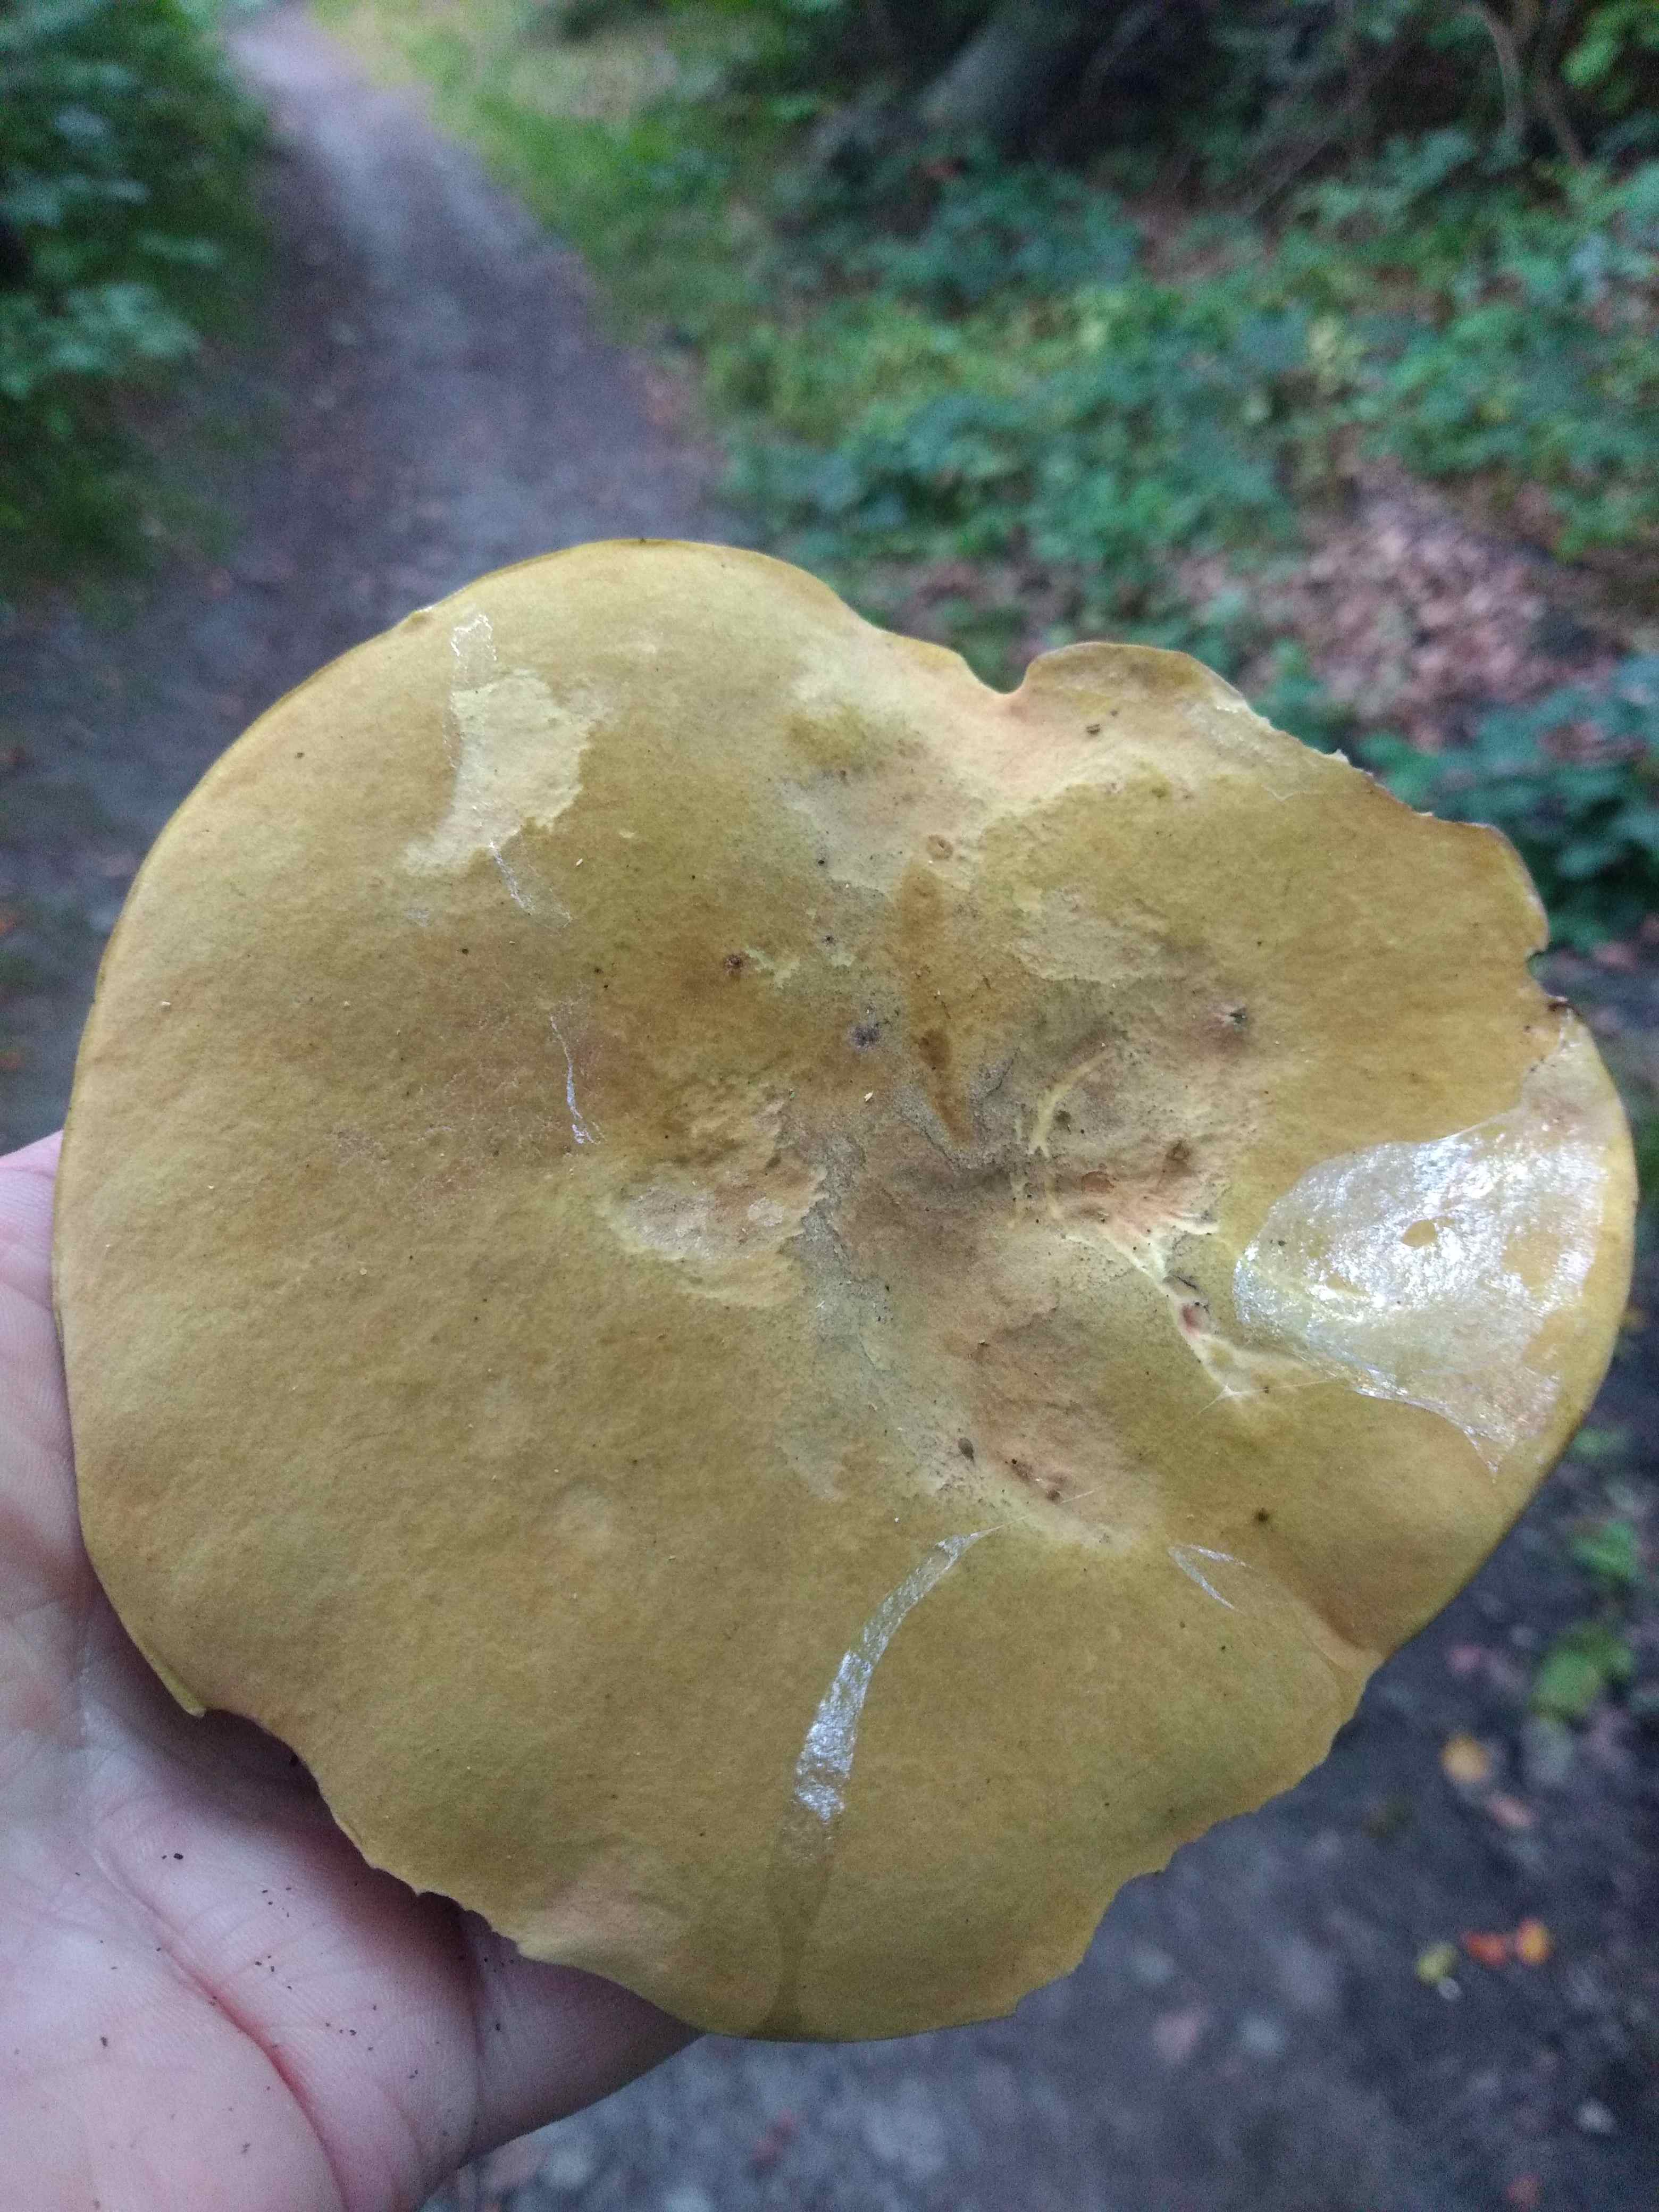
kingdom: Fungi
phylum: Basidiomycota
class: Agaricomycetes
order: Boletales
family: Boletaceae
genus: Suillellus
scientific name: Suillellus luridus
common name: netstokket indigorørhat
